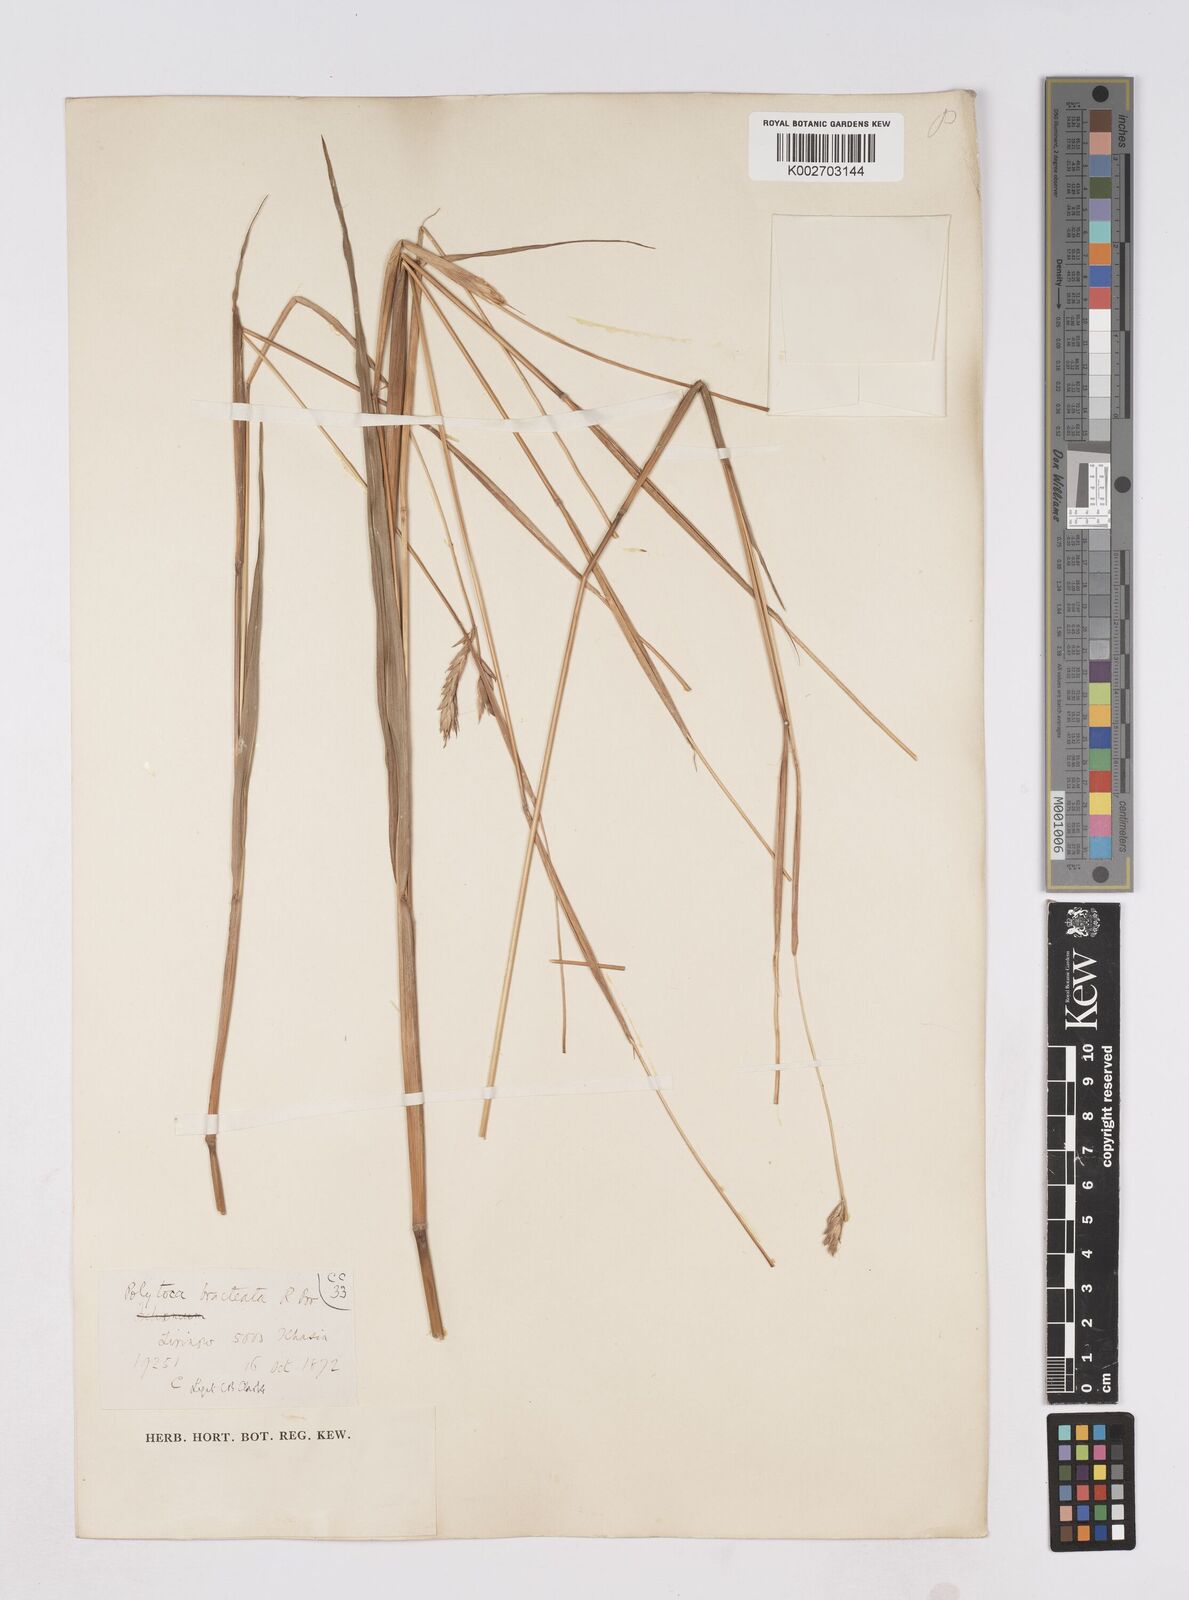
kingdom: Plantae
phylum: Tracheophyta
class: Liliopsida
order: Poales
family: Poaceae
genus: Polytoca
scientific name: Polytoca digitata
